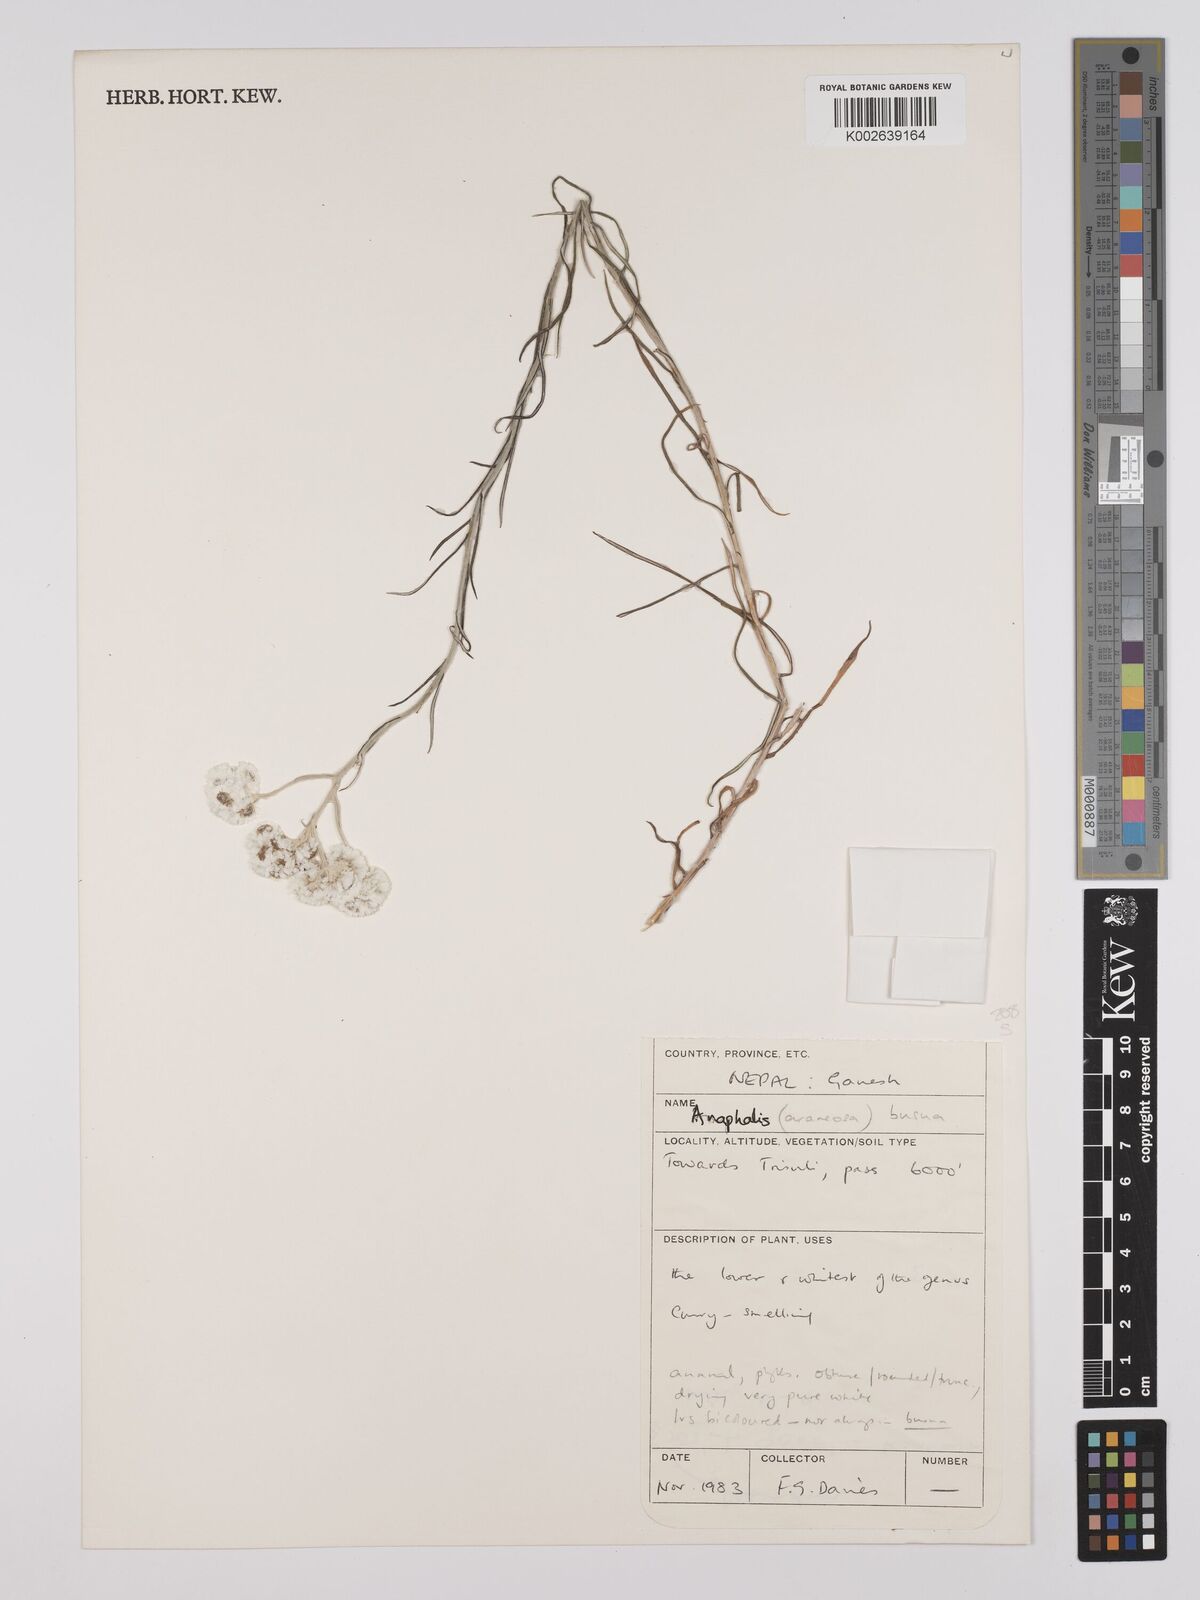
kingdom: Plantae
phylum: Tracheophyta
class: Magnoliopsida
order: Asterales
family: Asteraceae
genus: Anaphalis
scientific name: Anaphalis contorta
